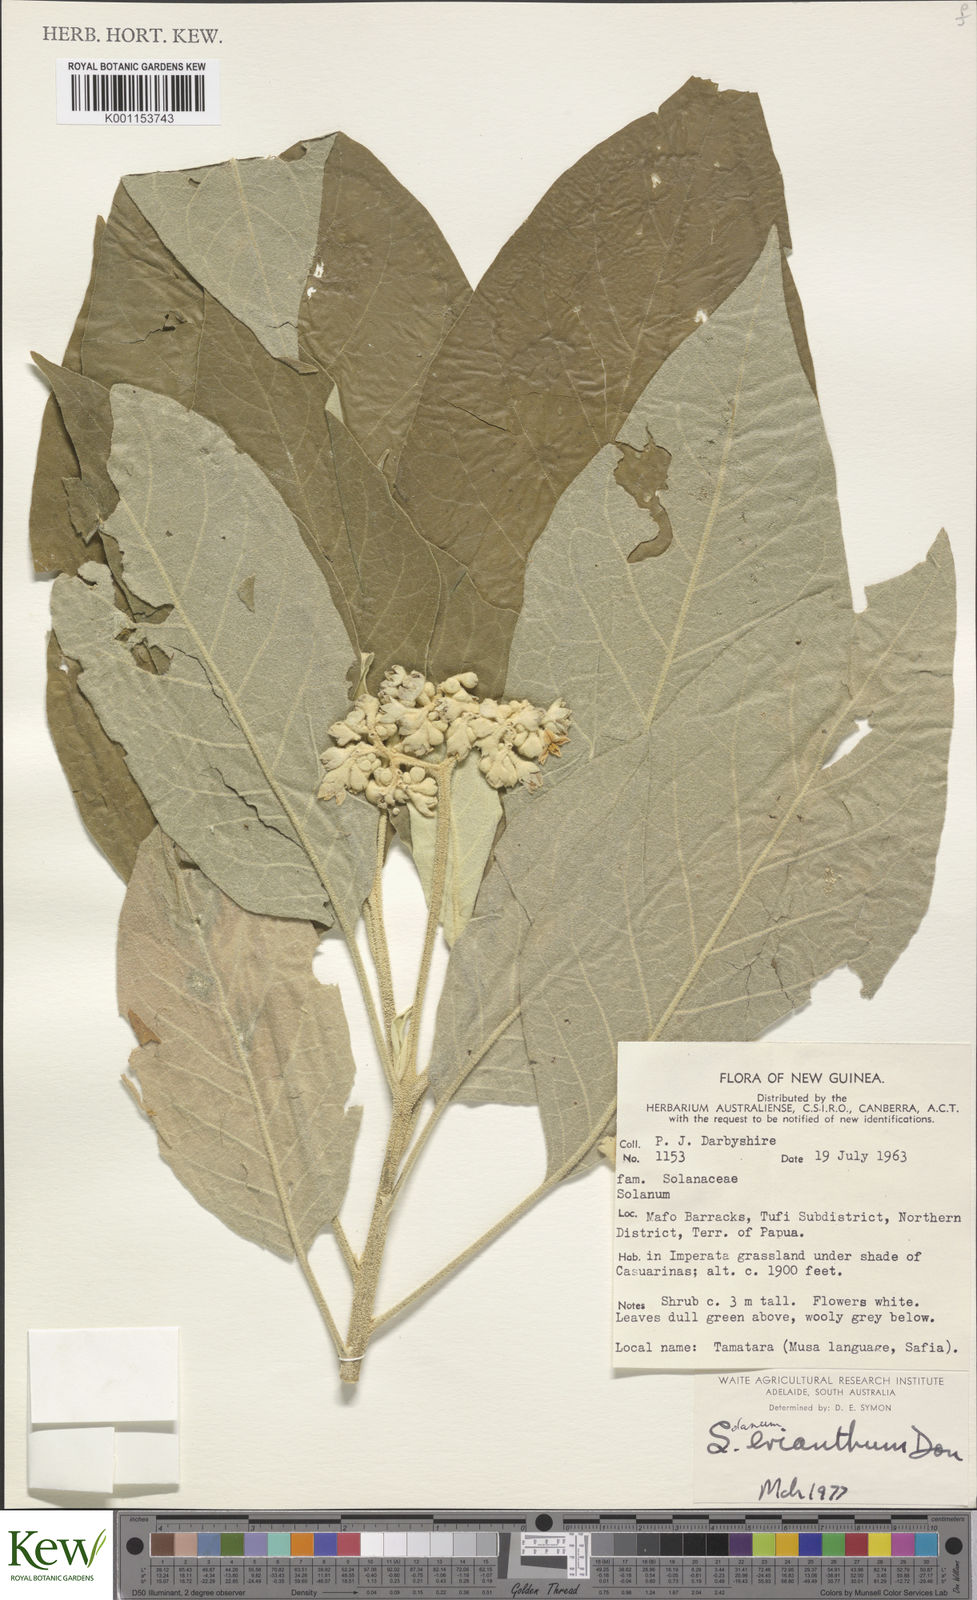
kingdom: Plantae
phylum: Tracheophyta
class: Magnoliopsida
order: Solanales
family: Solanaceae
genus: Solanum
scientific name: Solanum erianthum
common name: Tobacco-tree
